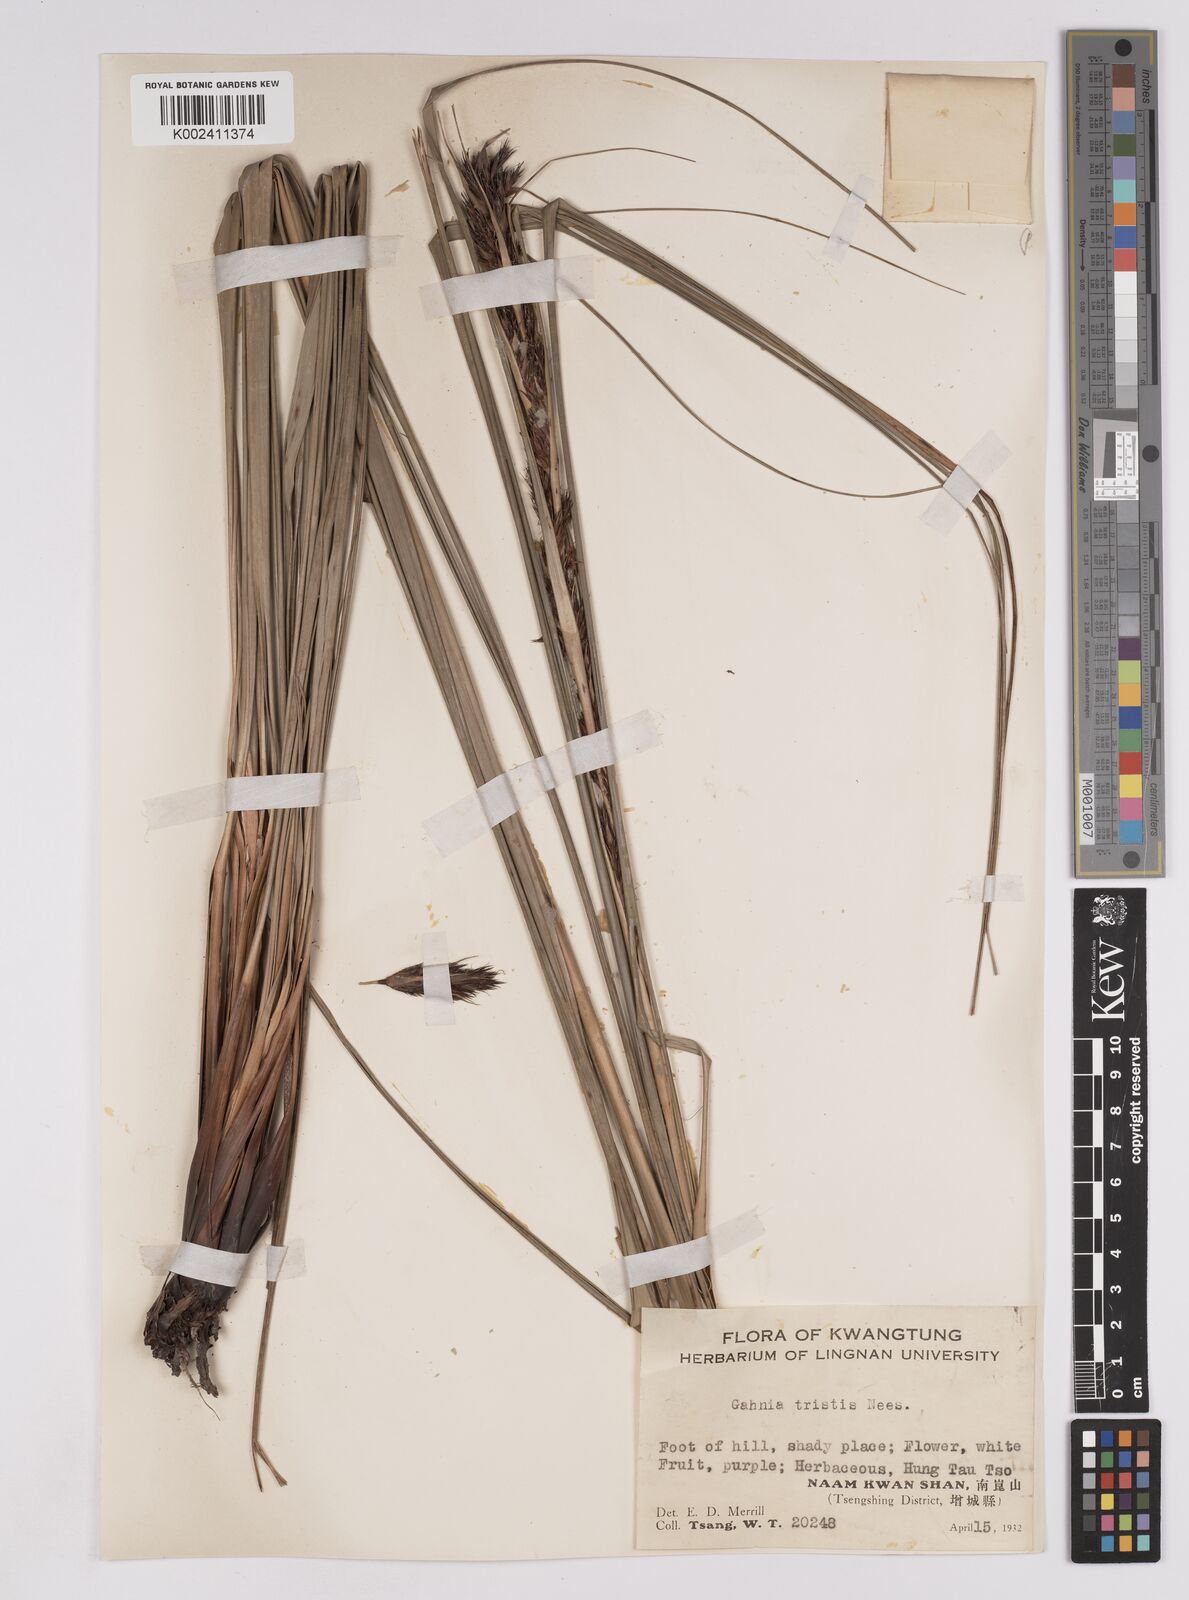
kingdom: Plantae
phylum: Tracheophyta
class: Liliopsida
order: Poales
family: Cyperaceae
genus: Gahnia
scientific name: Gahnia tristis
